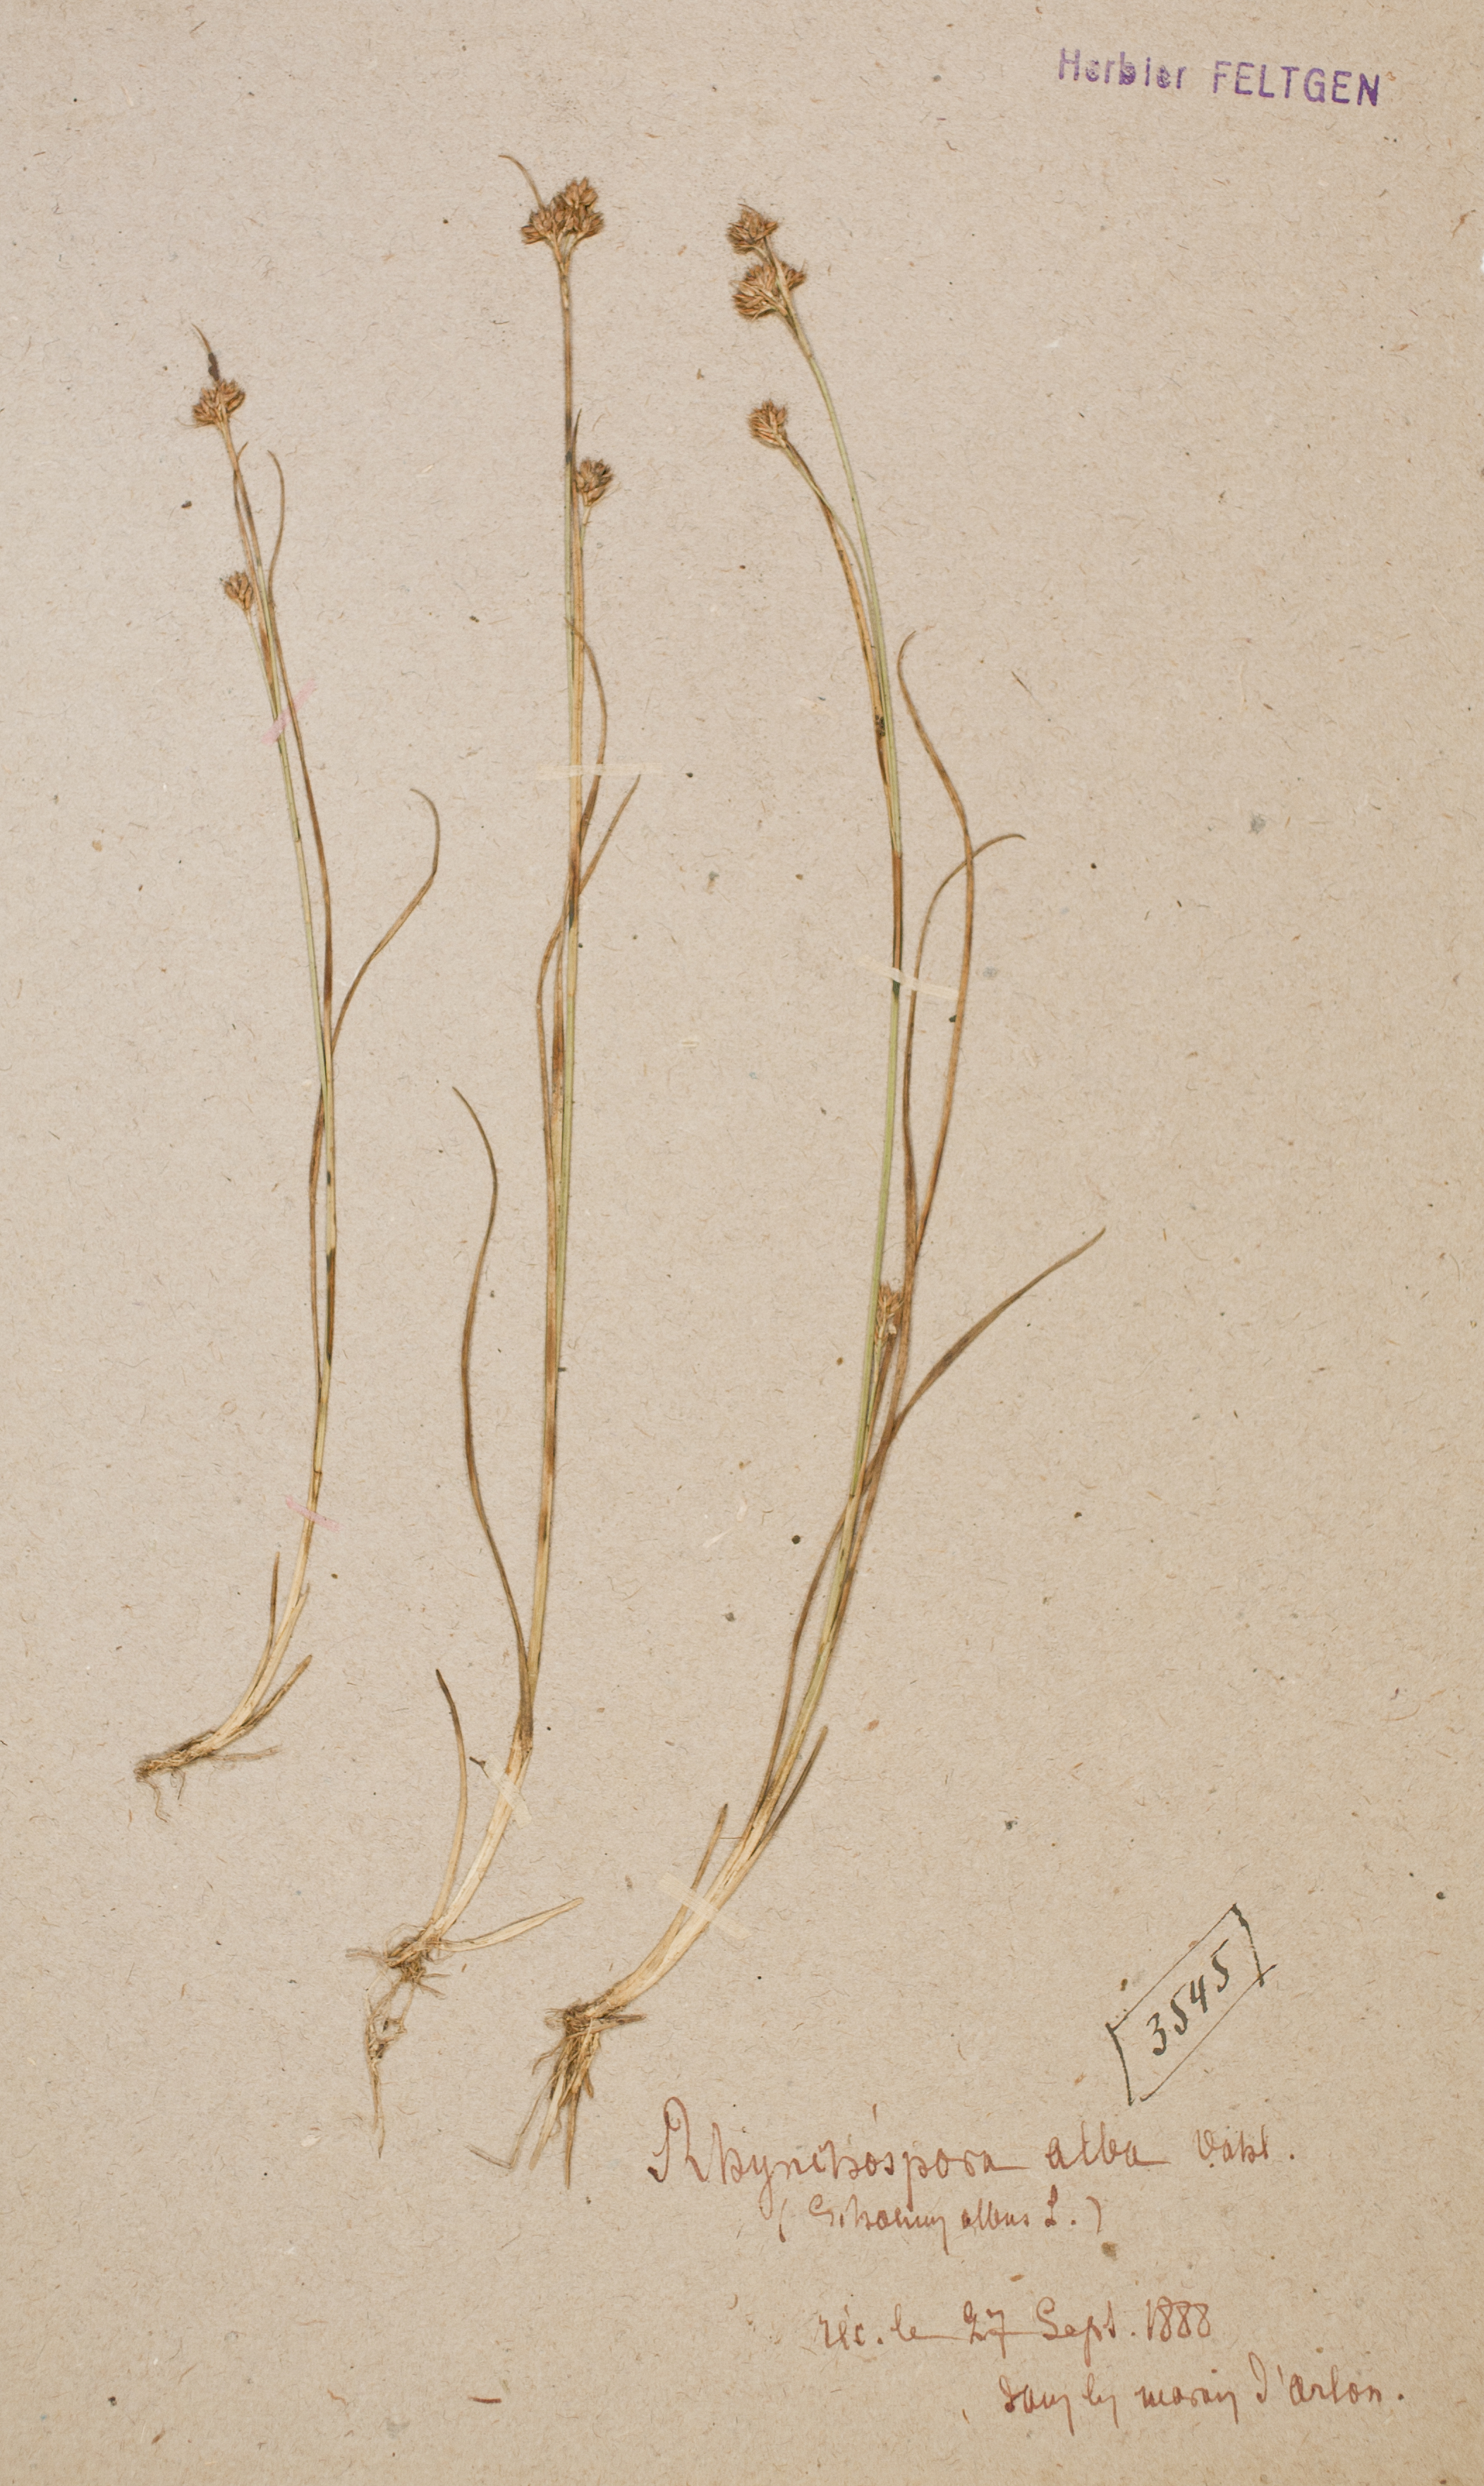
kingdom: Plantae
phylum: Tracheophyta
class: Liliopsida
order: Poales
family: Cyperaceae
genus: Rhynchospora
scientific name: Rhynchospora alba
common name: White beak-sedge
